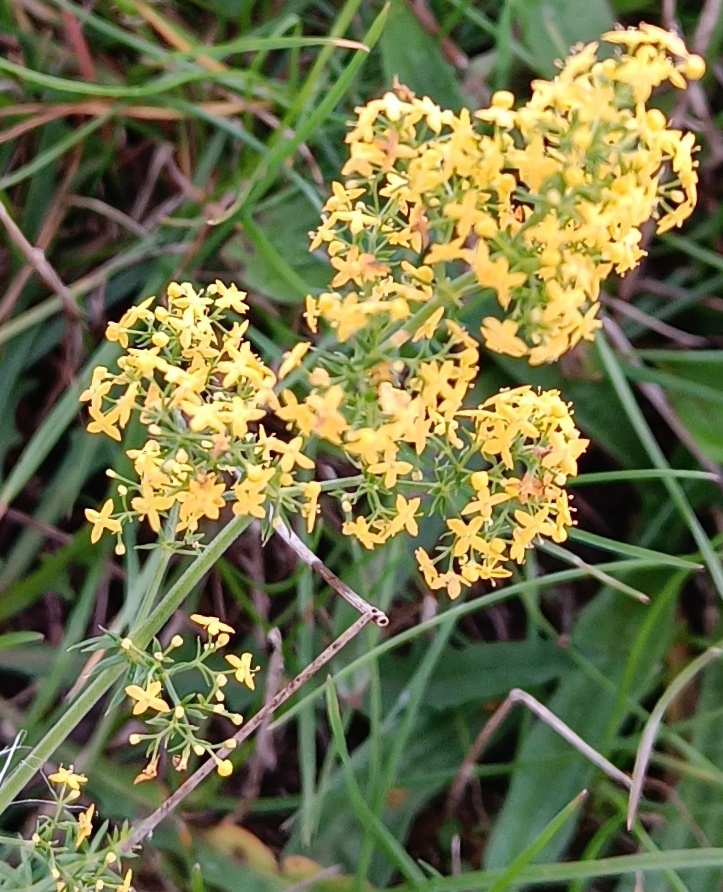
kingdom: Plantae
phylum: Tracheophyta
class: Magnoliopsida
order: Gentianales
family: Rubiaceae
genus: Galium
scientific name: Galium verum
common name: Gul snerre
